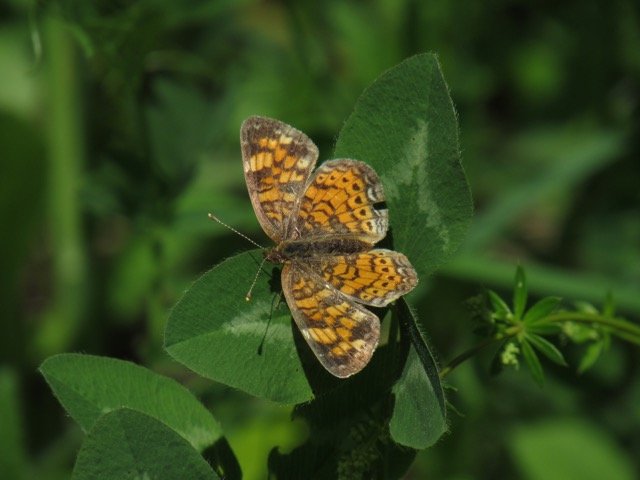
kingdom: Animalia
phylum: Arthropoda
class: Insecta
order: Lepidoptera
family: Nymphalidae
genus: Phyciodes
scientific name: Phyciodes
